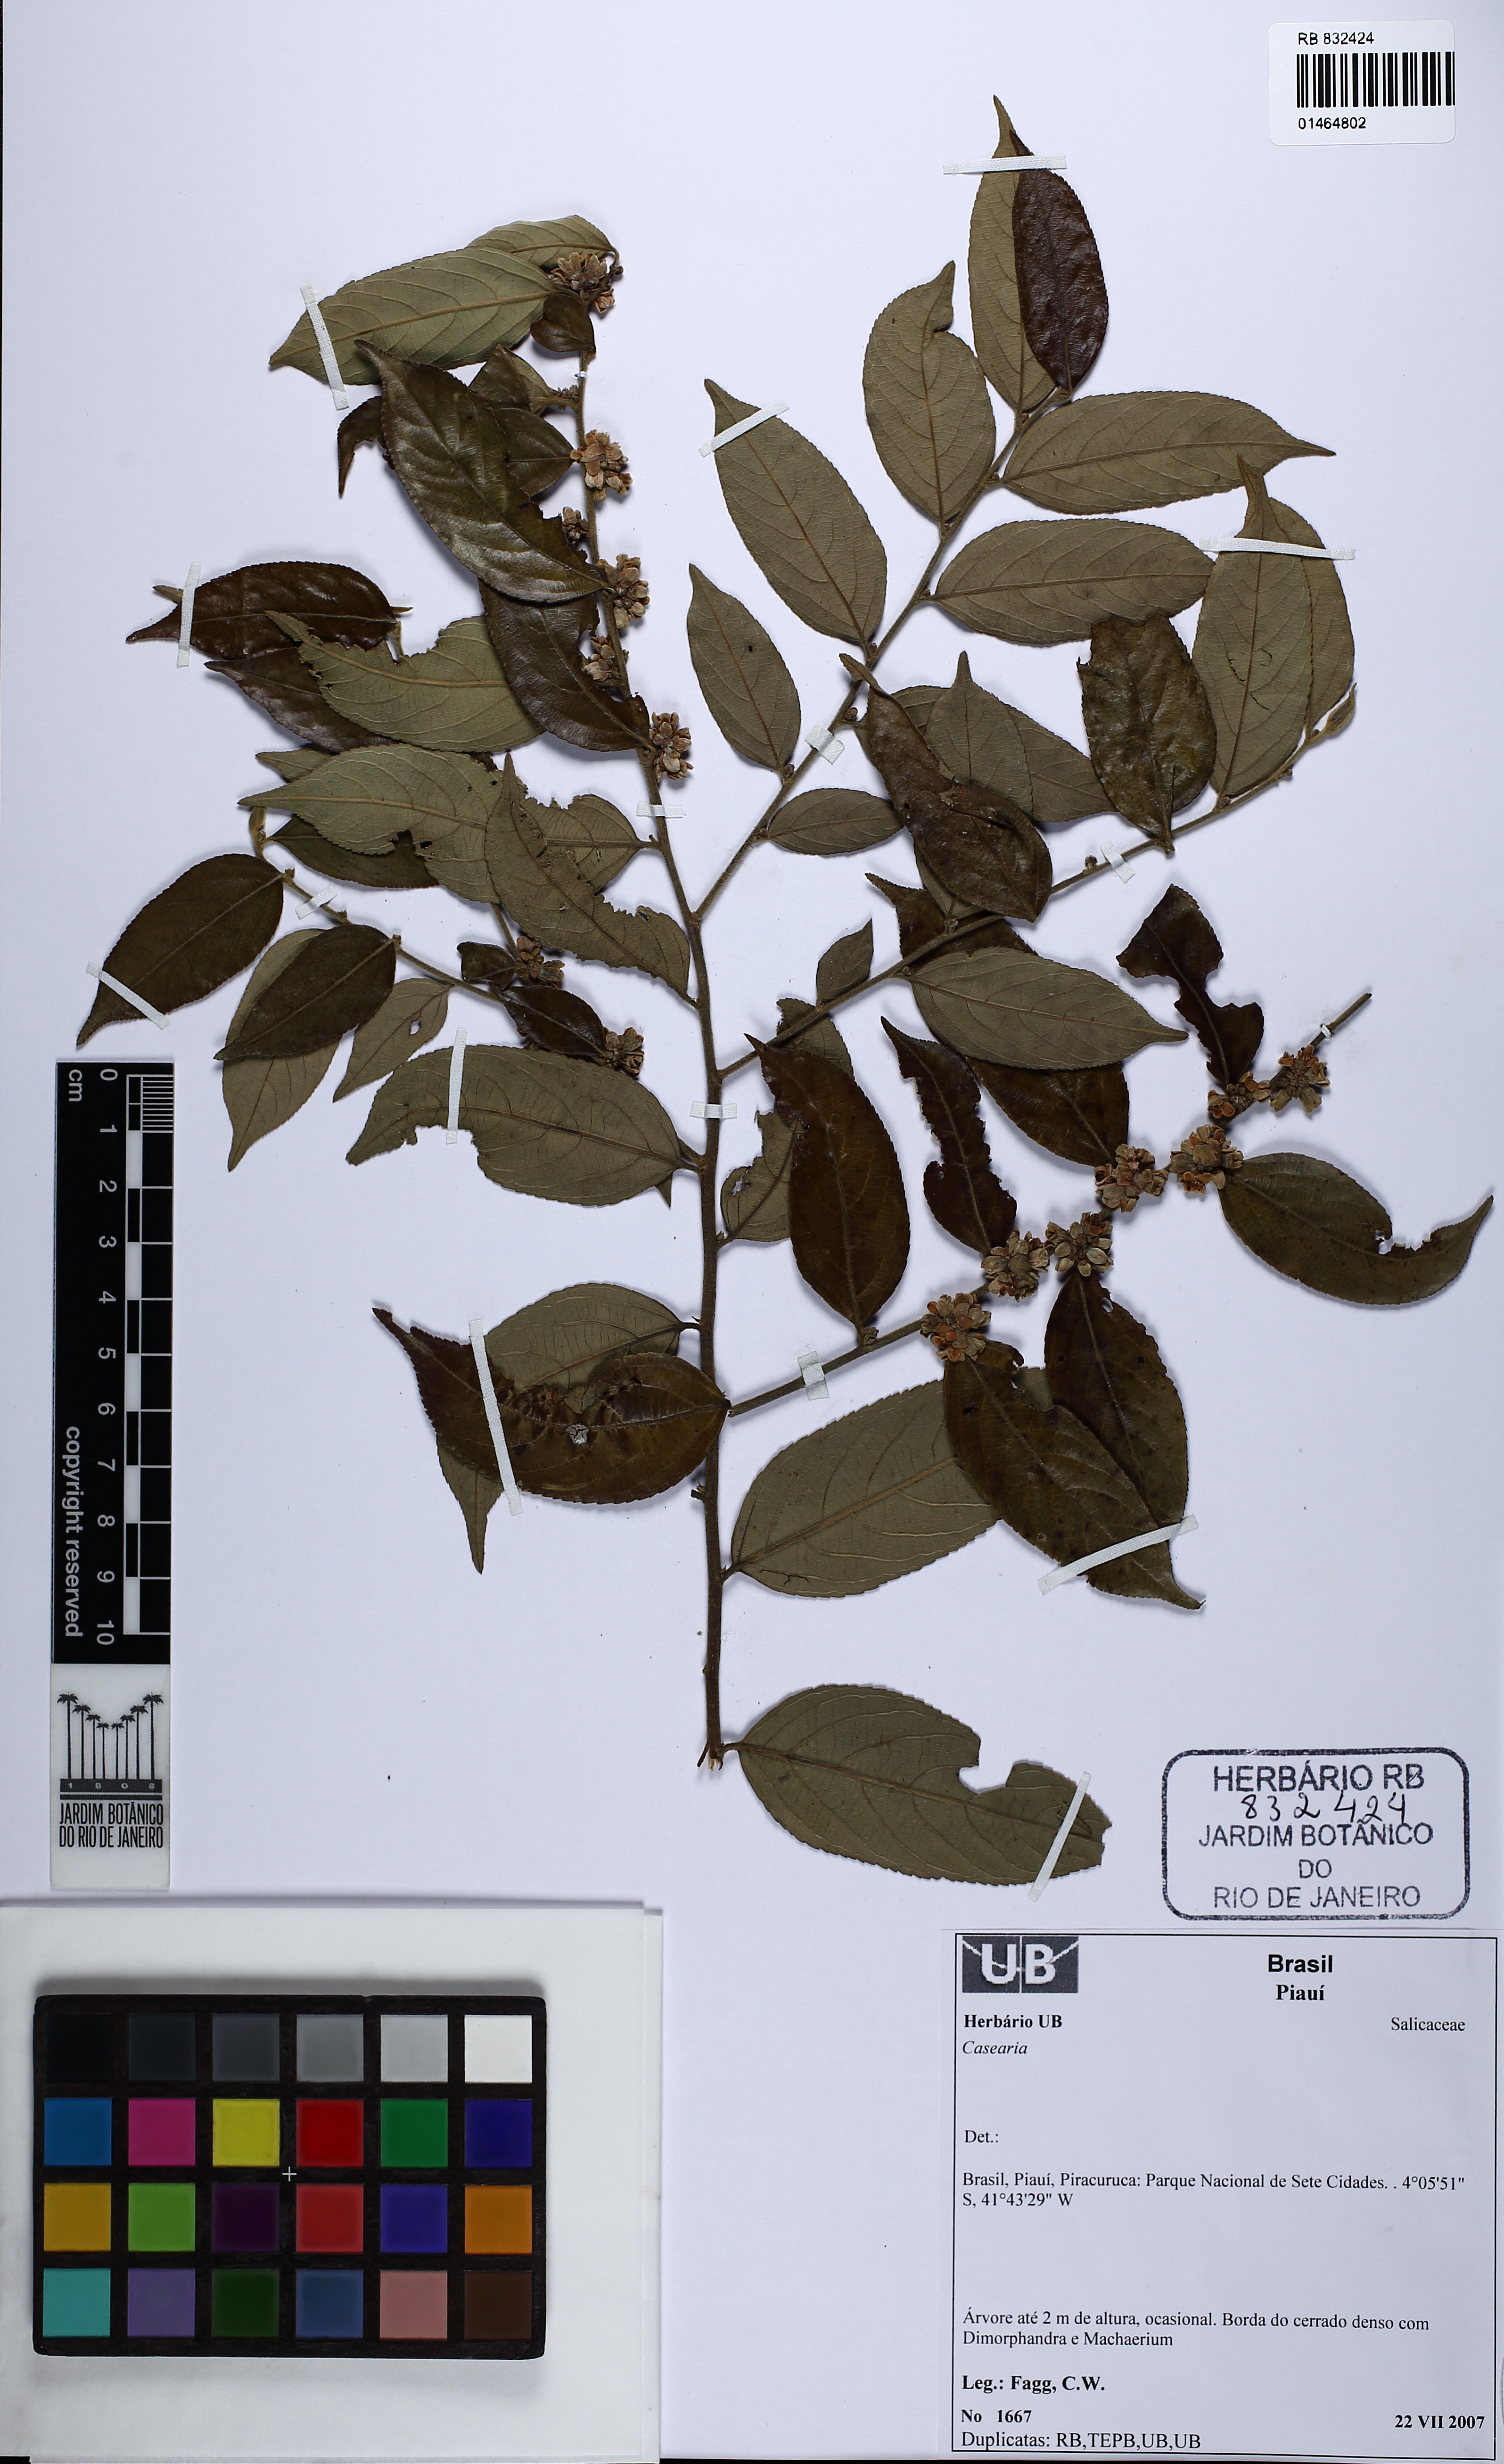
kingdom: Plantae
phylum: Tracheophyta
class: Magnoliopsida
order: Malpighiales
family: Salicaceae
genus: Casearia
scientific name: Casearia grandiflora
